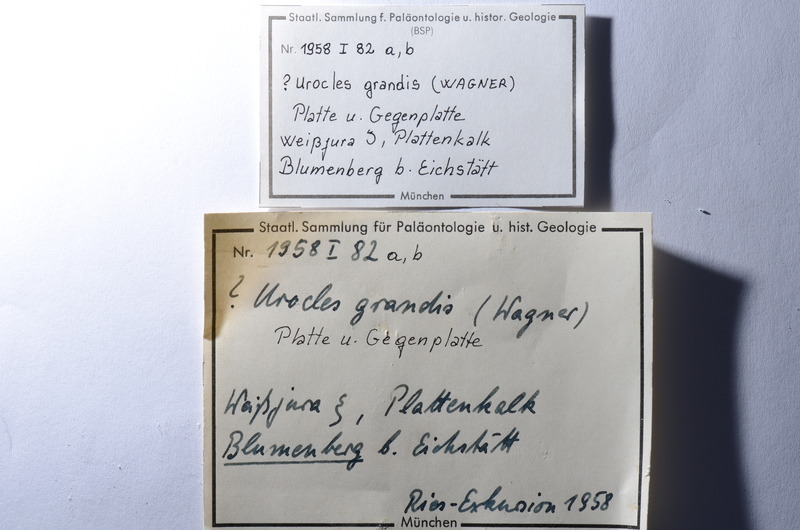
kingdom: Animalia
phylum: Chordata
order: Amiiformes
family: Amiidae
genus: Amiopsis
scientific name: Amiopsis lepidota
